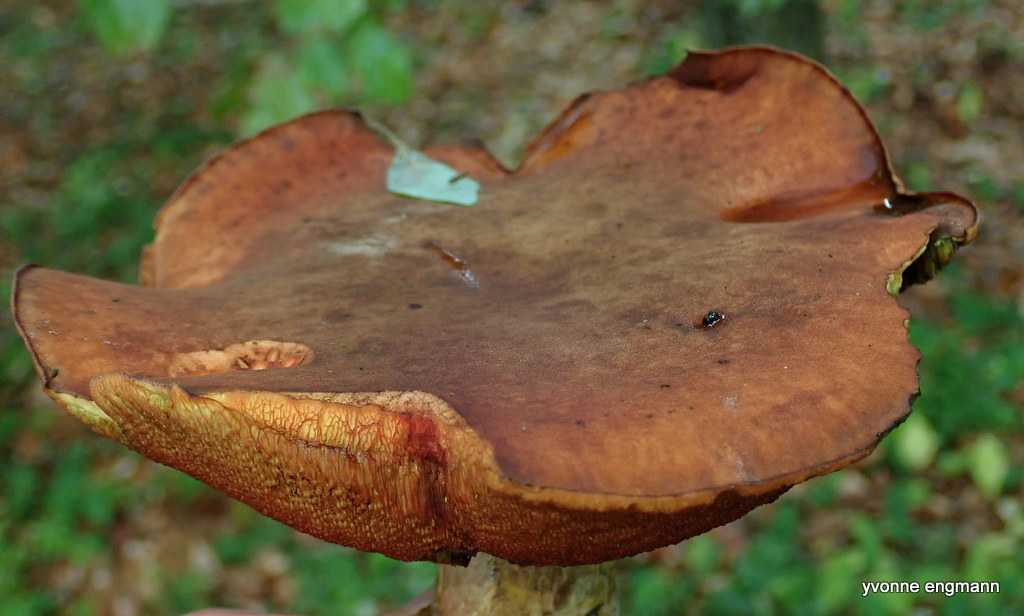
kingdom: Fungi
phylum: Basidiomycota
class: Agaricomycetes
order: Boletales
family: Boletaceae
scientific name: Boletaceae
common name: rørhatfamilien
